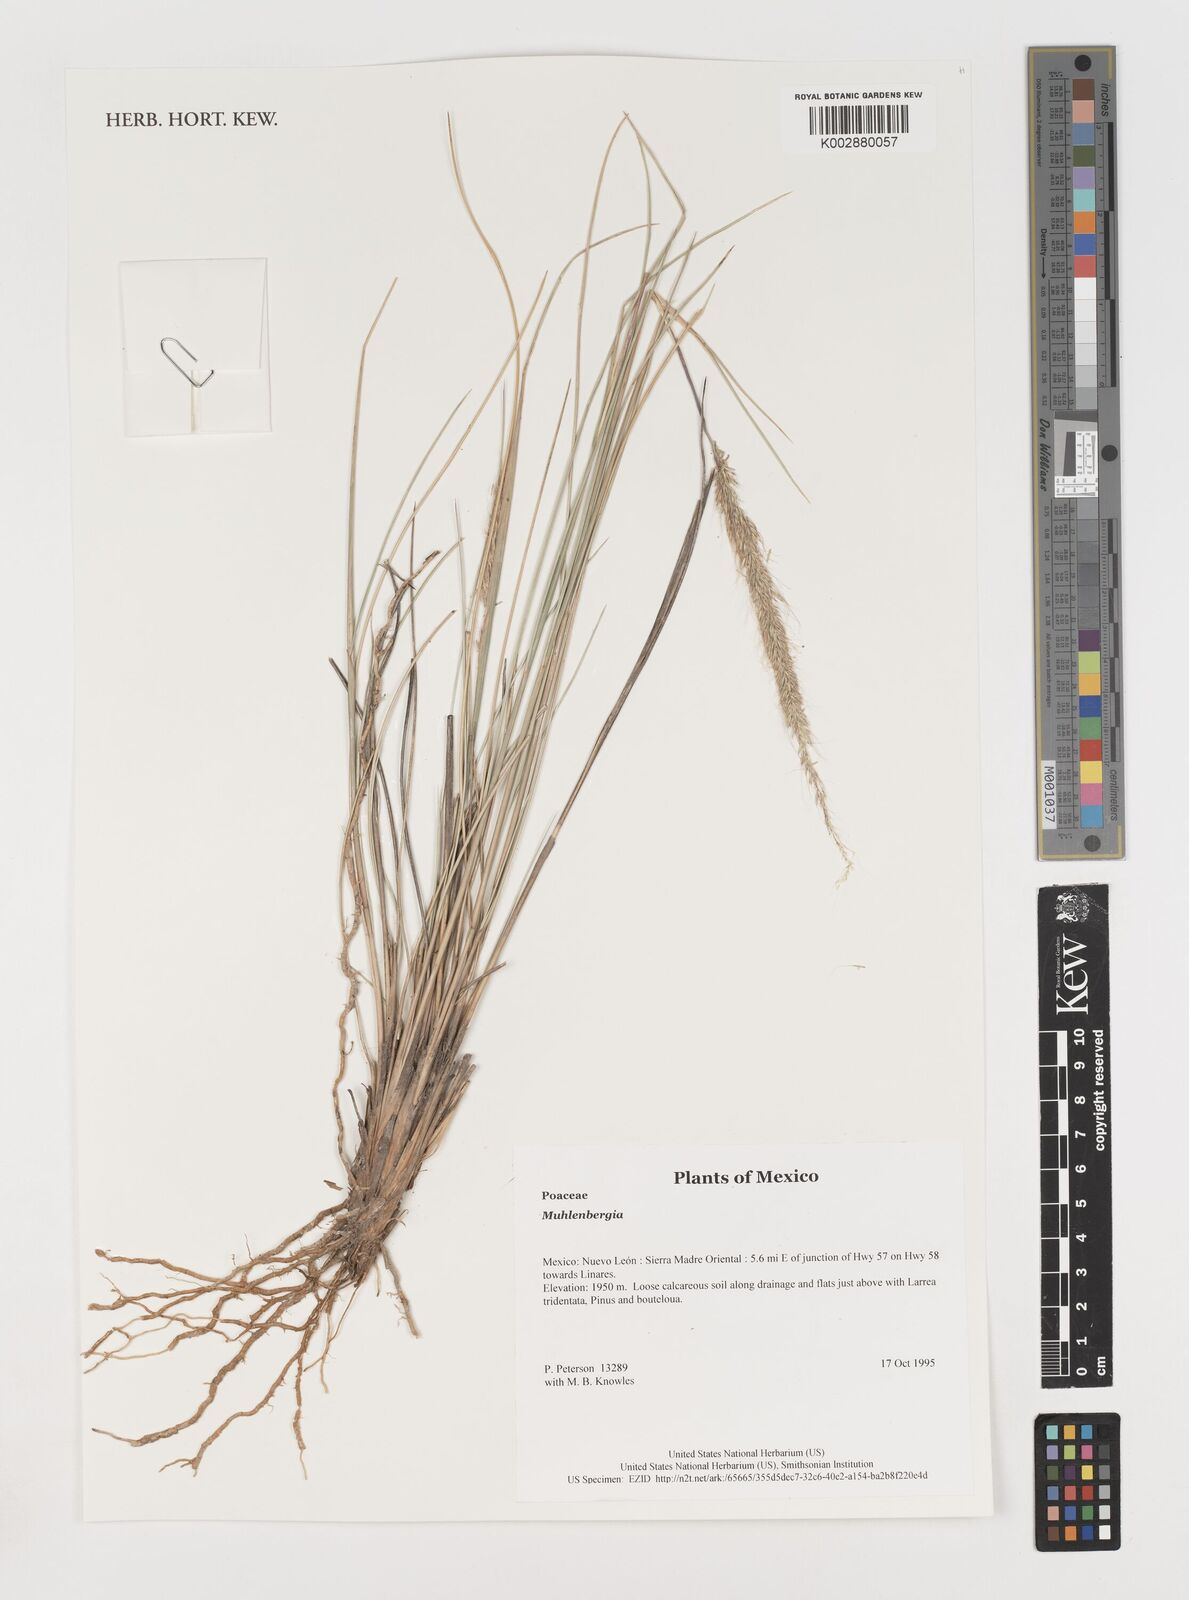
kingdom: Plantae
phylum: Tracheophyta
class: Liliopsida
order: Poales
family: Poaceae
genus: Muhlenbergia
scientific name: Muhlenbergia
